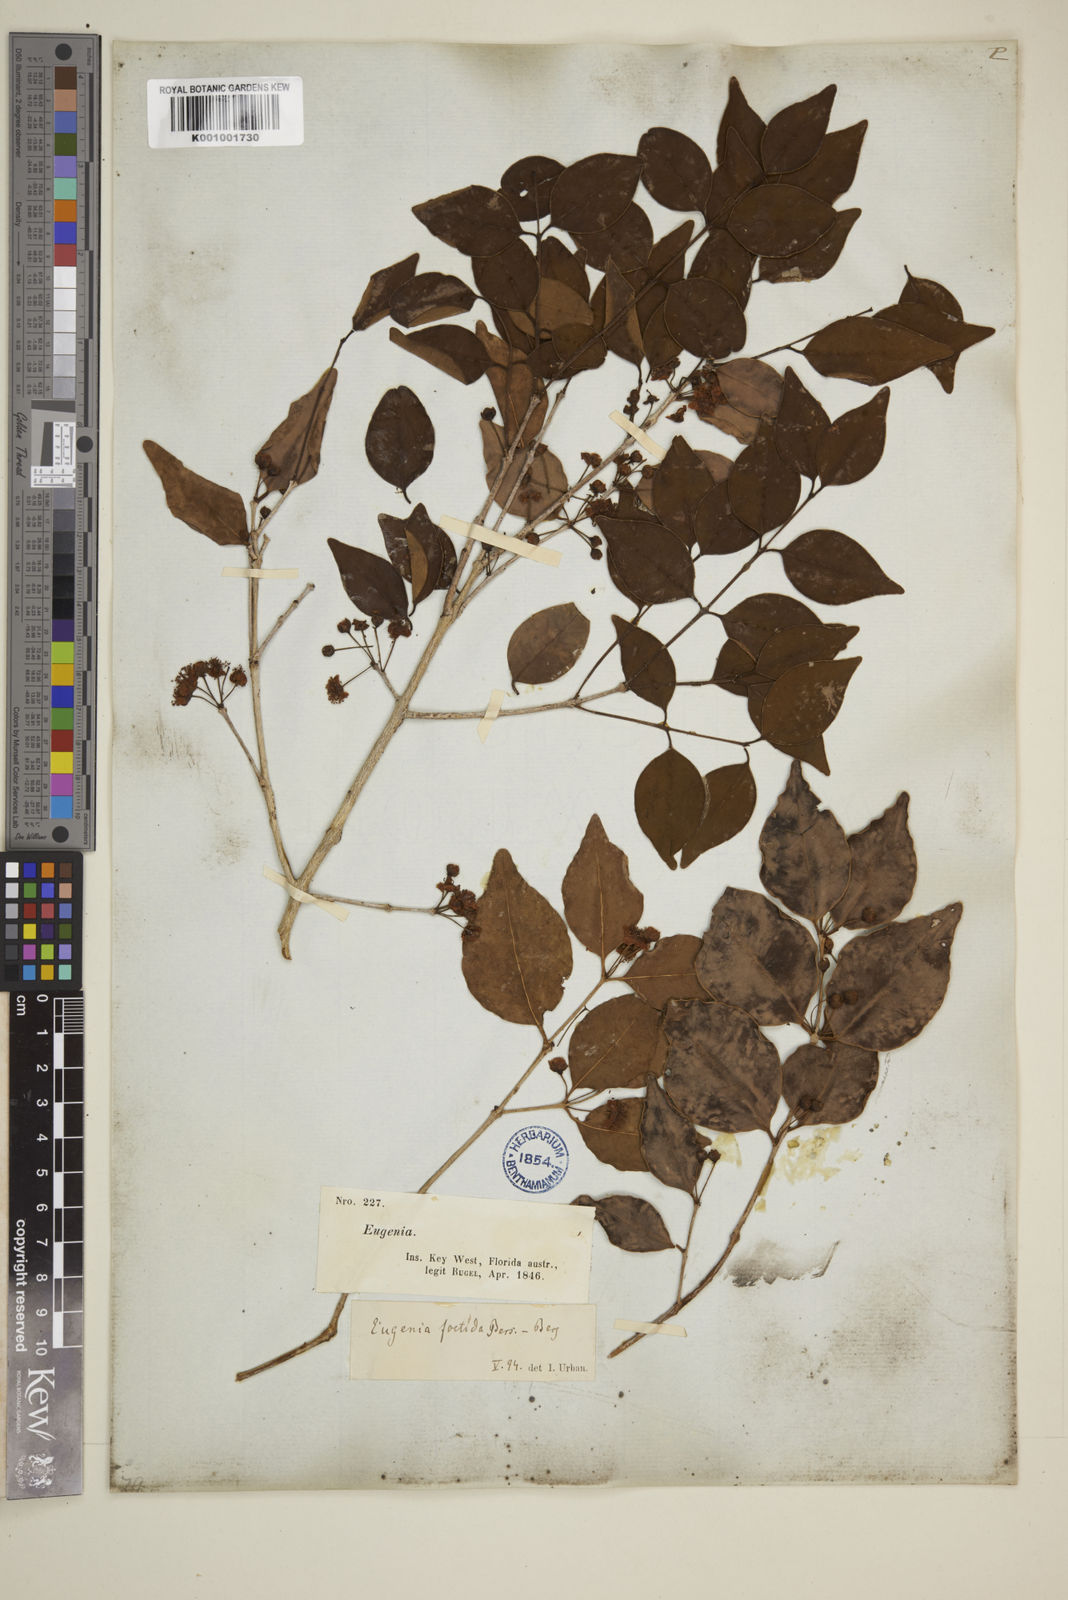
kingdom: Plantae
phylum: Tracheophyta
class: Magnoliopsida
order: Myrtales
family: Myrtaceae
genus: Eugenia
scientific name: Eugenia rhombea
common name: Pigeon berry
